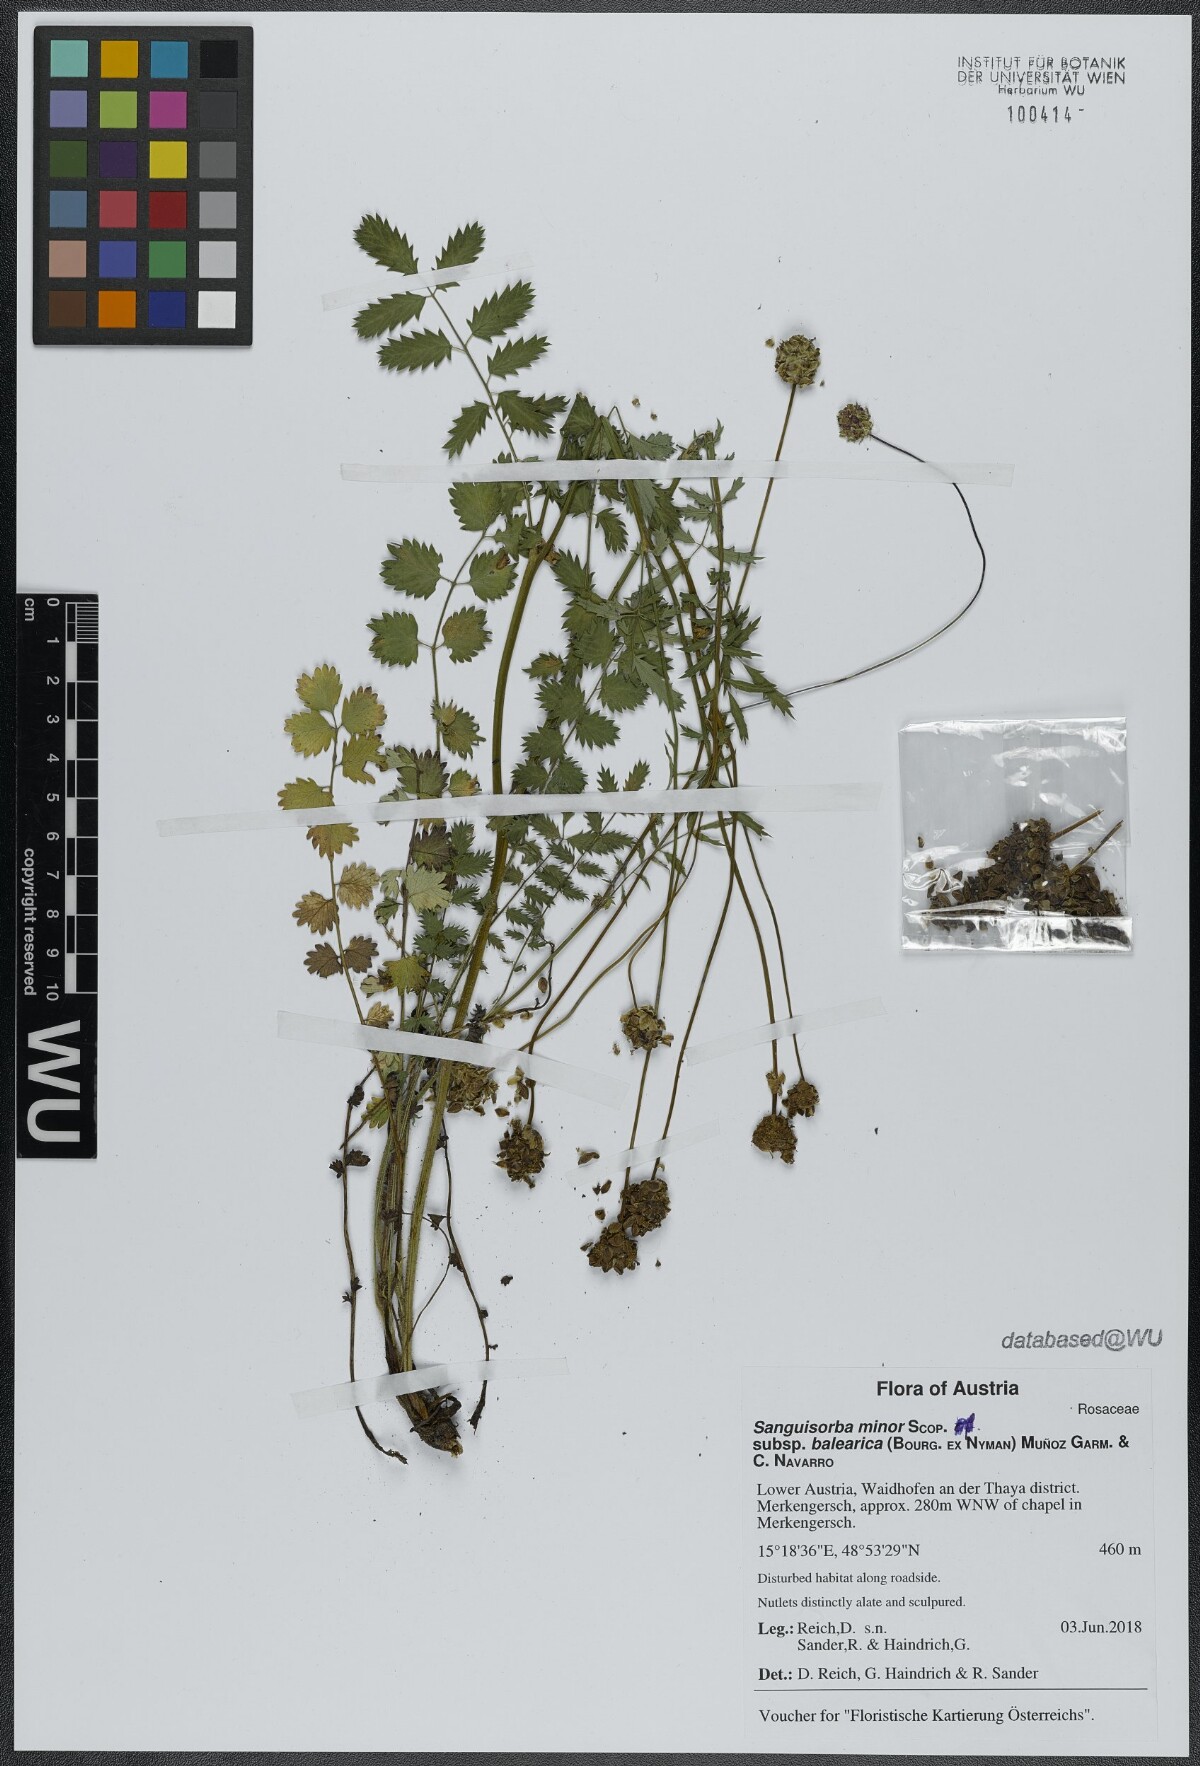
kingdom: Plantae
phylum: Tracheophyta
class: Magnoliopsida
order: Rosales
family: Rosaceae
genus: Poterium
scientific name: Poterium sanguisorba
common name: Salad burnet
